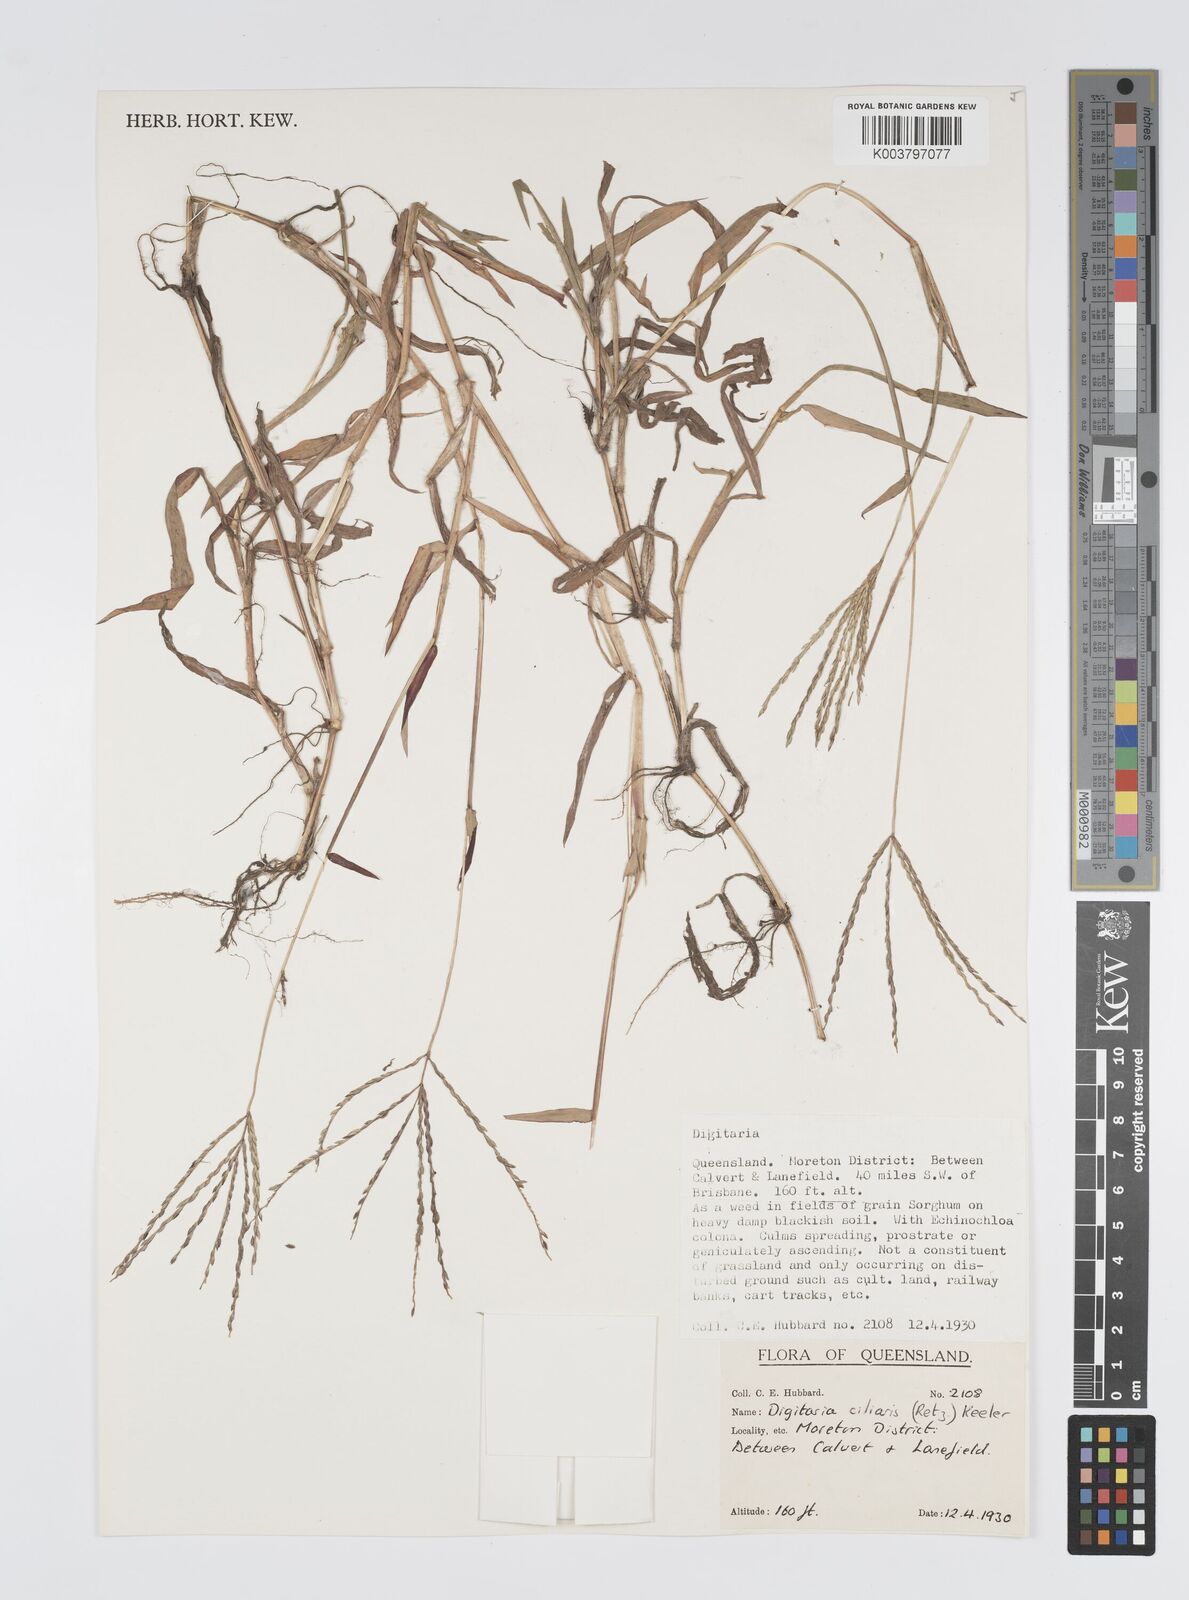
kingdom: Plantae
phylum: Tracheophyta
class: Liliopsida
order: Poales
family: Poaceae
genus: Digitaria
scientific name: Digitaria ciliaris
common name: Tropical finger-grass
